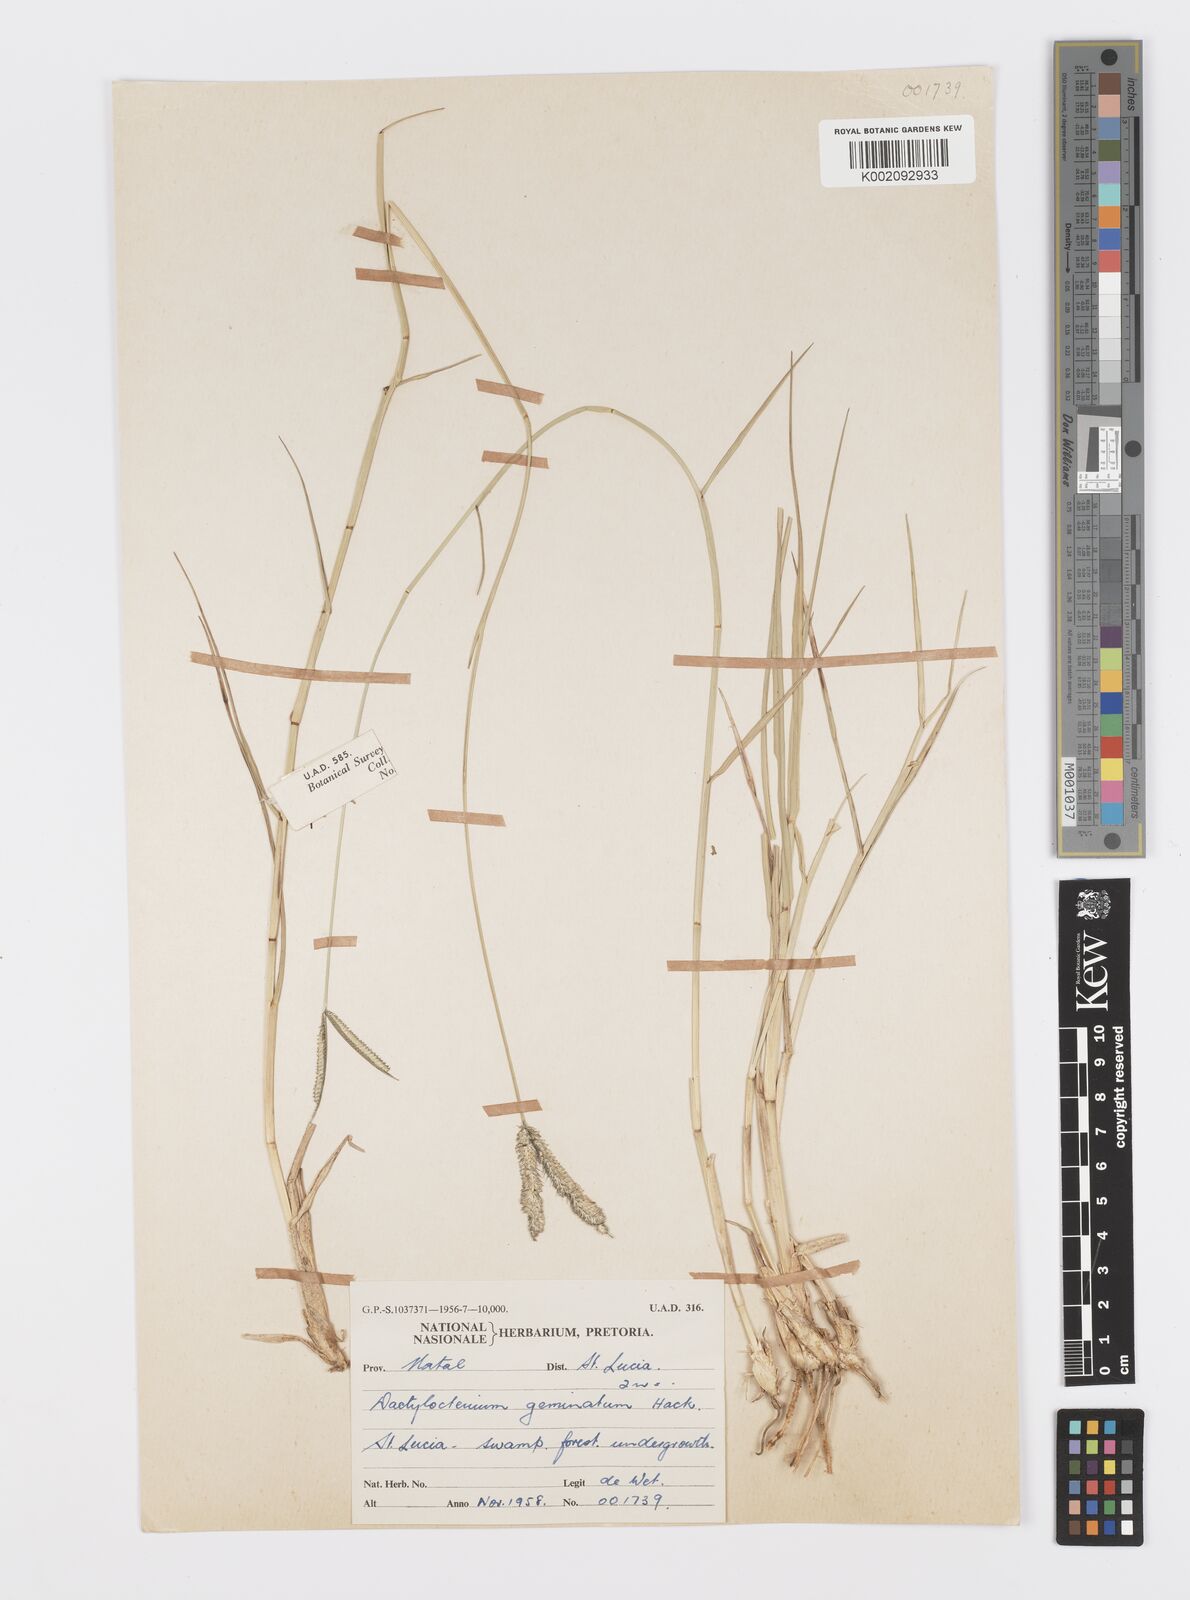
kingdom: Plantae
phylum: Tracheophyta
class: Liliopsida
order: Poales
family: Poaceae
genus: Dactyloctenium
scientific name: Dactyloctenium geminatum
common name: Crowsfoot grass
